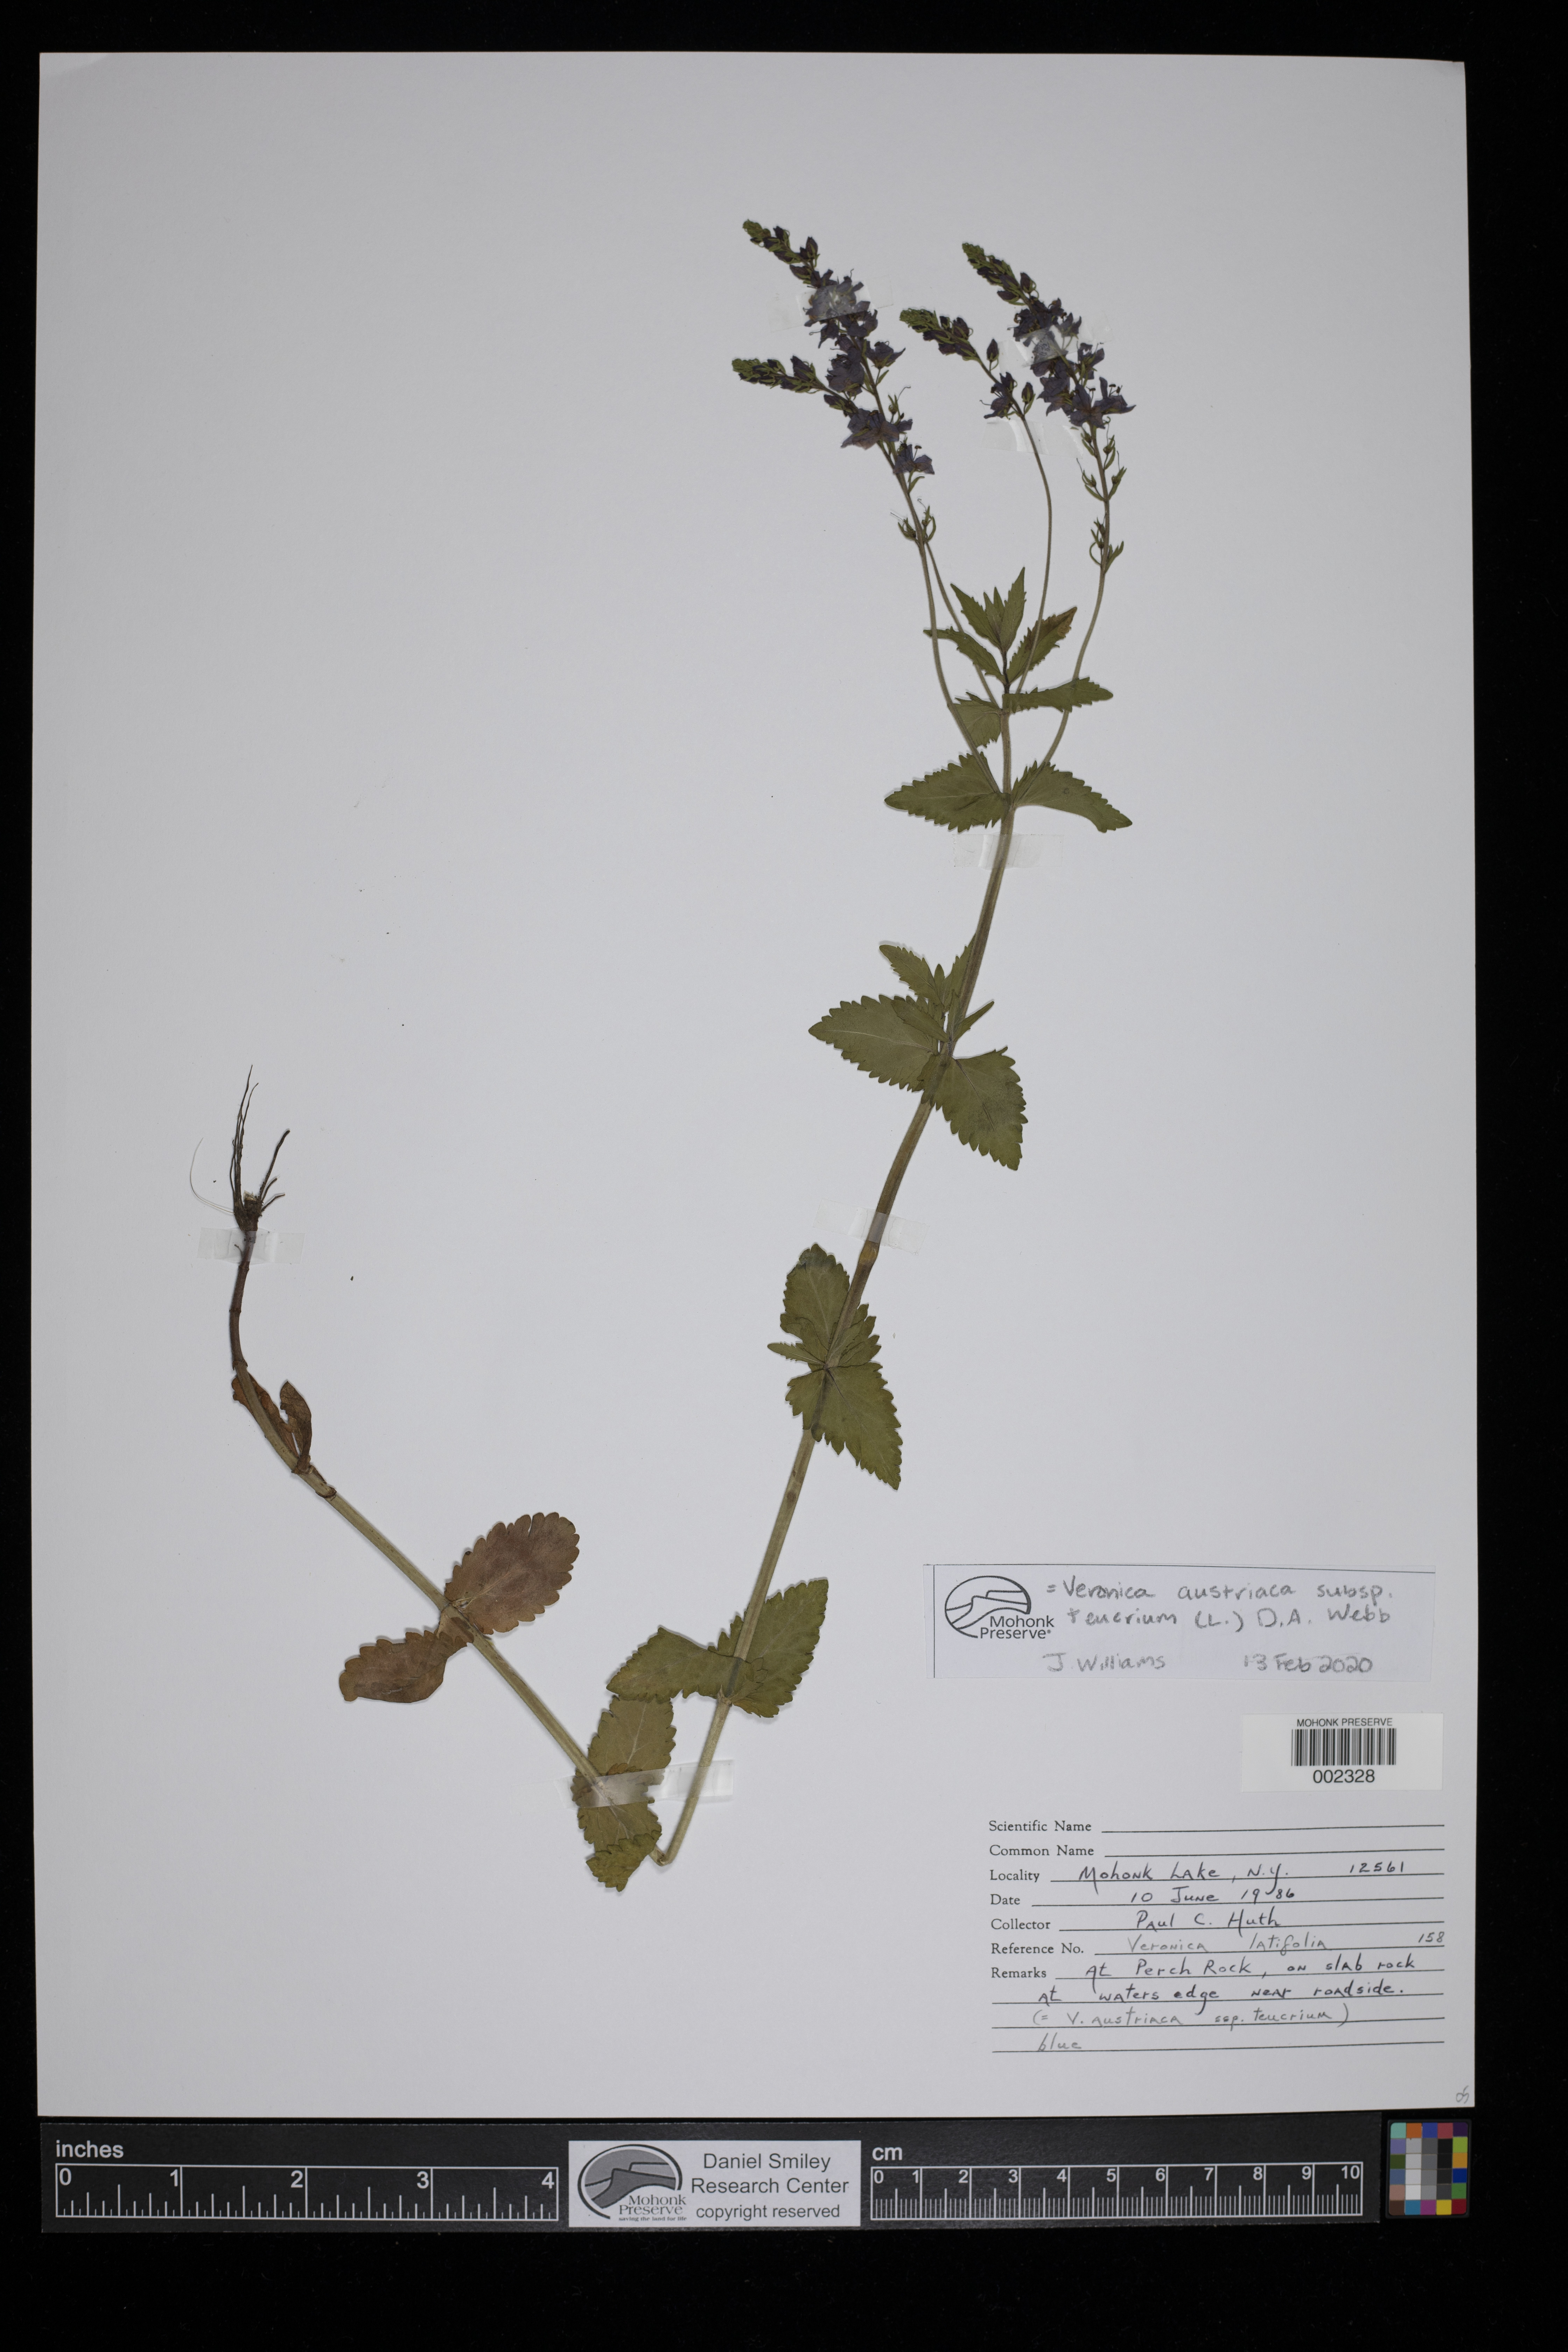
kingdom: Plantae
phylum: Tracheophyta
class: Magnoliopsida
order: Lamiales
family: Plantaginaceae
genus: Veronica
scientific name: Veronica teucrium
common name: Large speedwell
